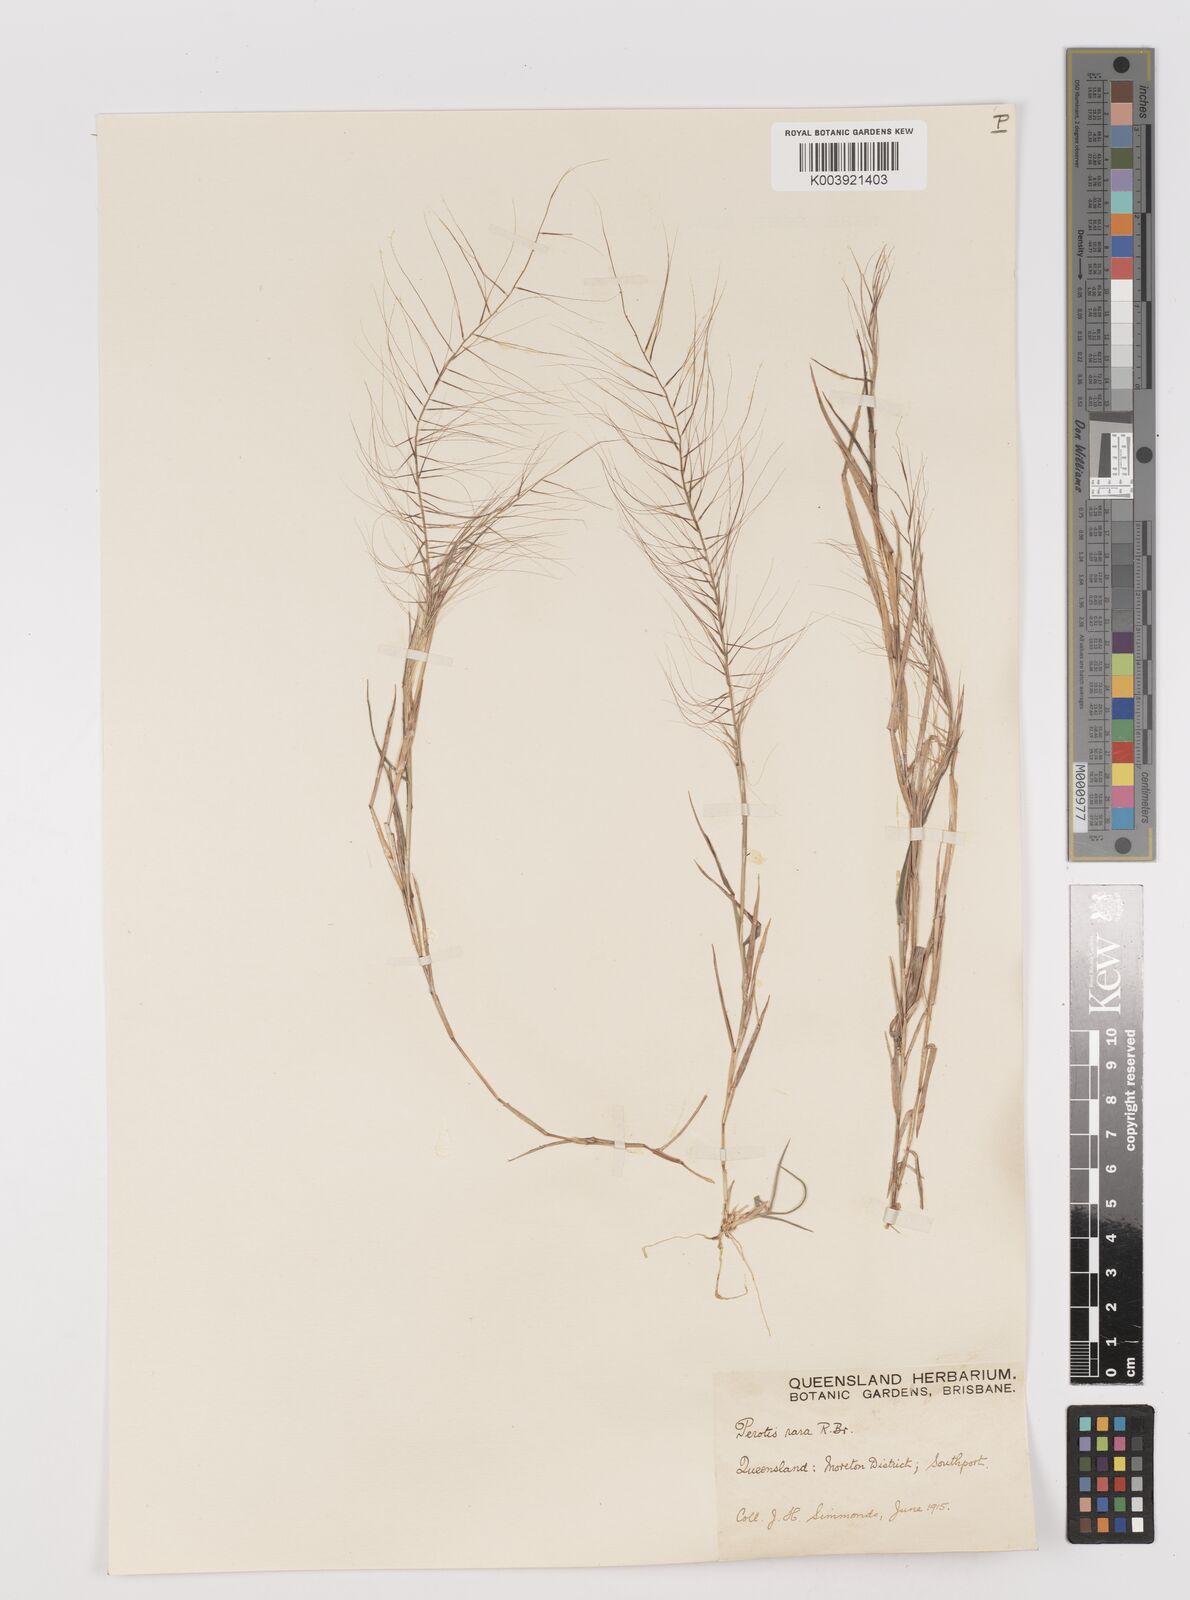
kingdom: Plantae
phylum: Tracheophyta
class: Liliopsida
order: Poales
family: Poaceae
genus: Perotis
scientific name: Perotis rara
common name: Comet grass
